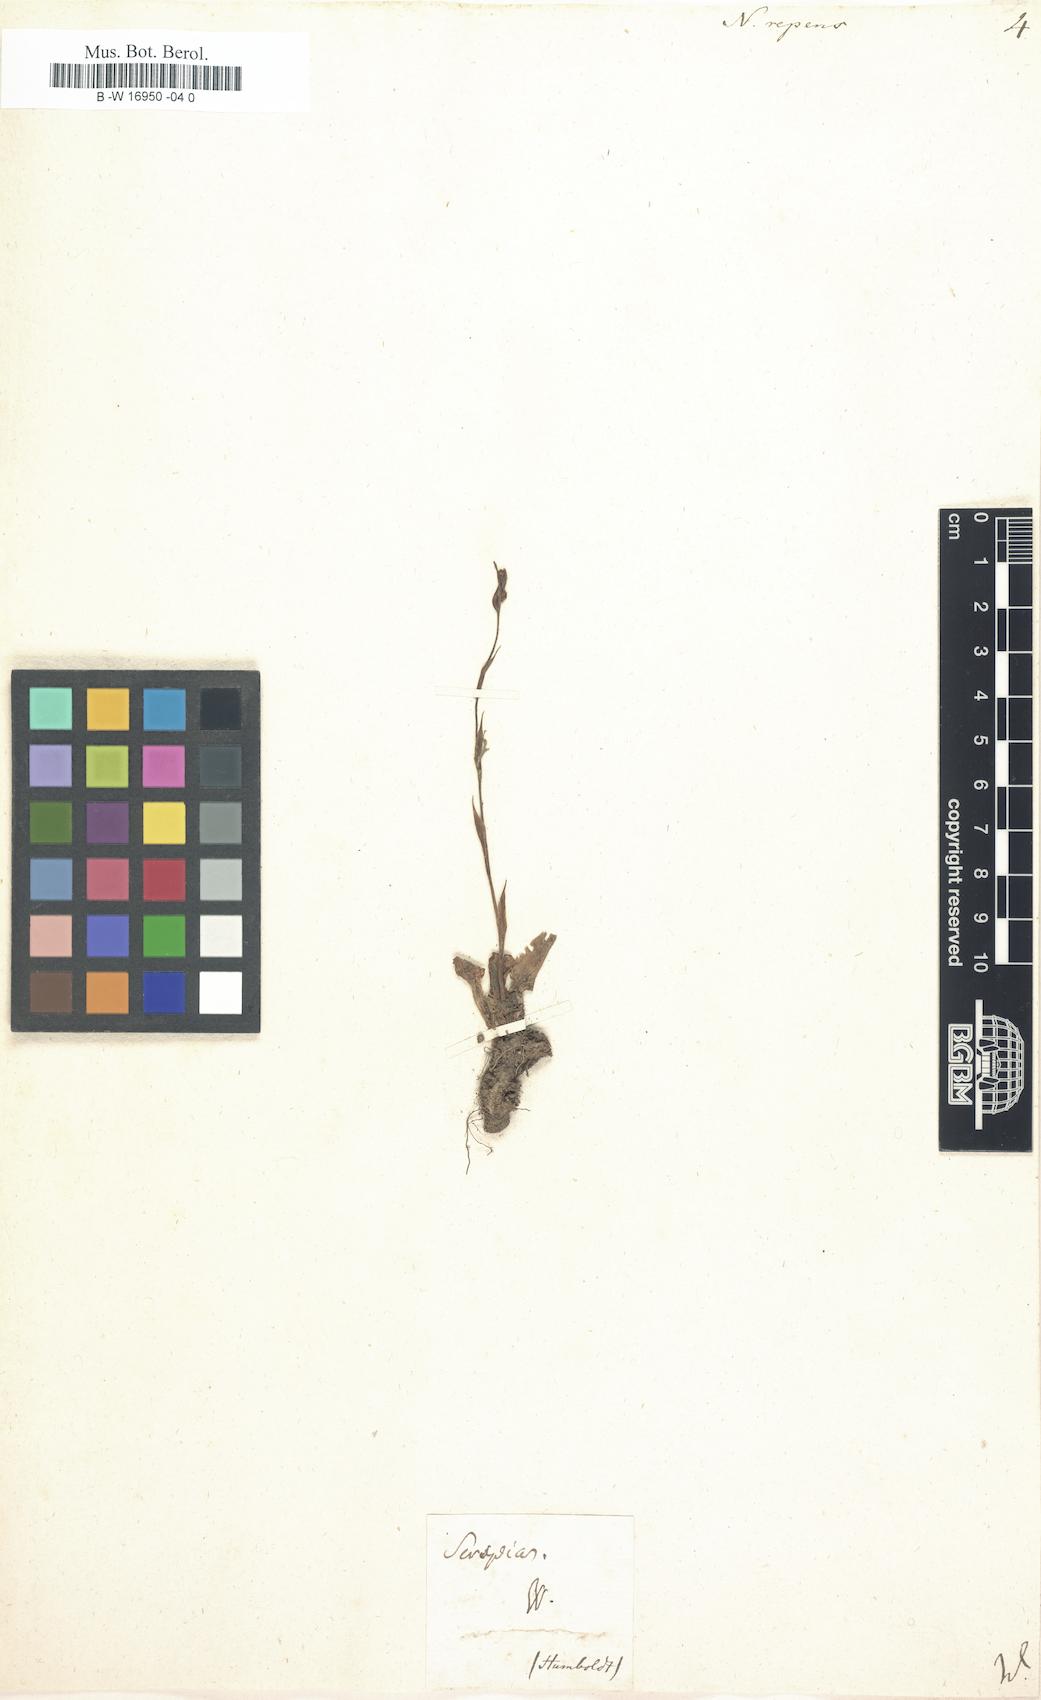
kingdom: Plantae
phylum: Tracheophyta
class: Liliopsida
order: Asparagales
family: Orchidaceae
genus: Goodyera
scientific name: Goodyera
